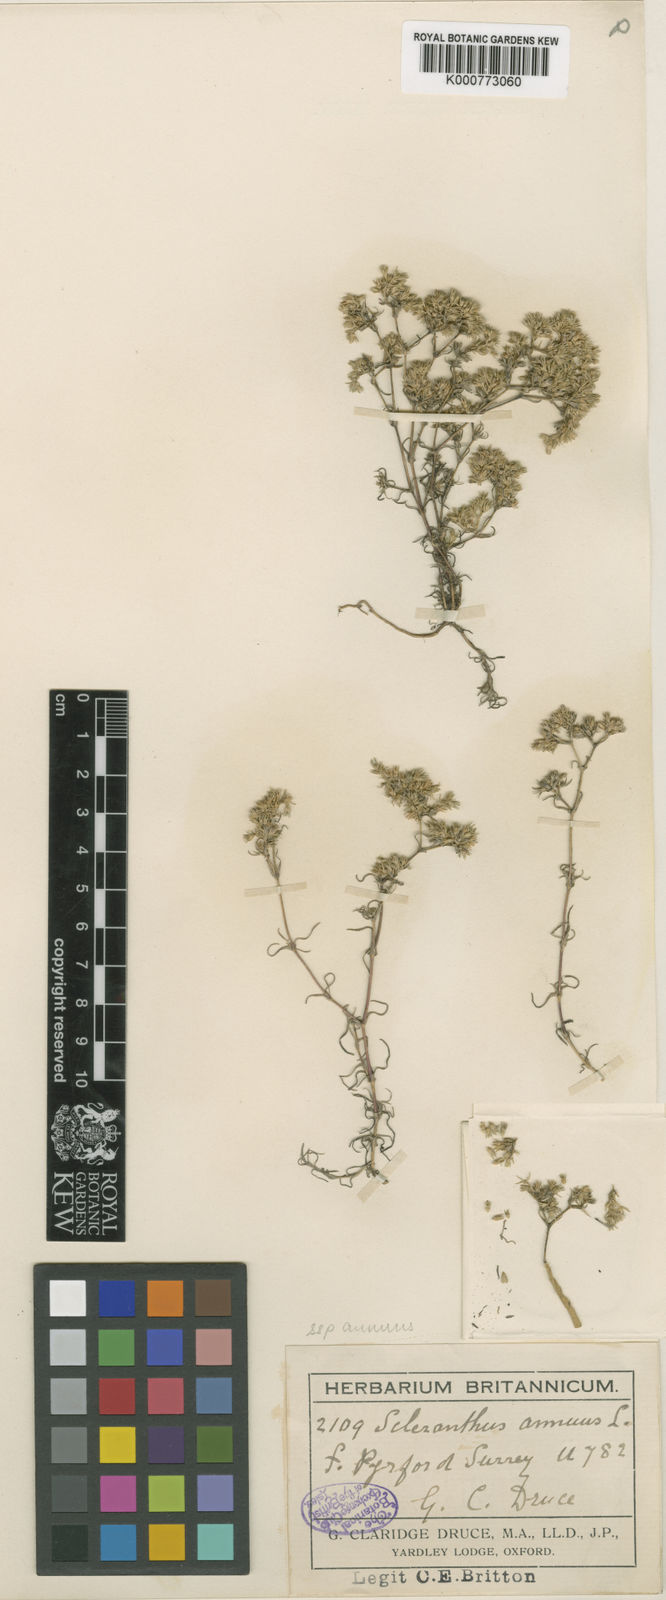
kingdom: Plantae
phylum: Tracheophyta
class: Magnoliopsida
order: Caryophyllales
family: Caryophyllaceae
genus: Scleranthus
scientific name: Scleranthus annuus
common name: Annual knawel
